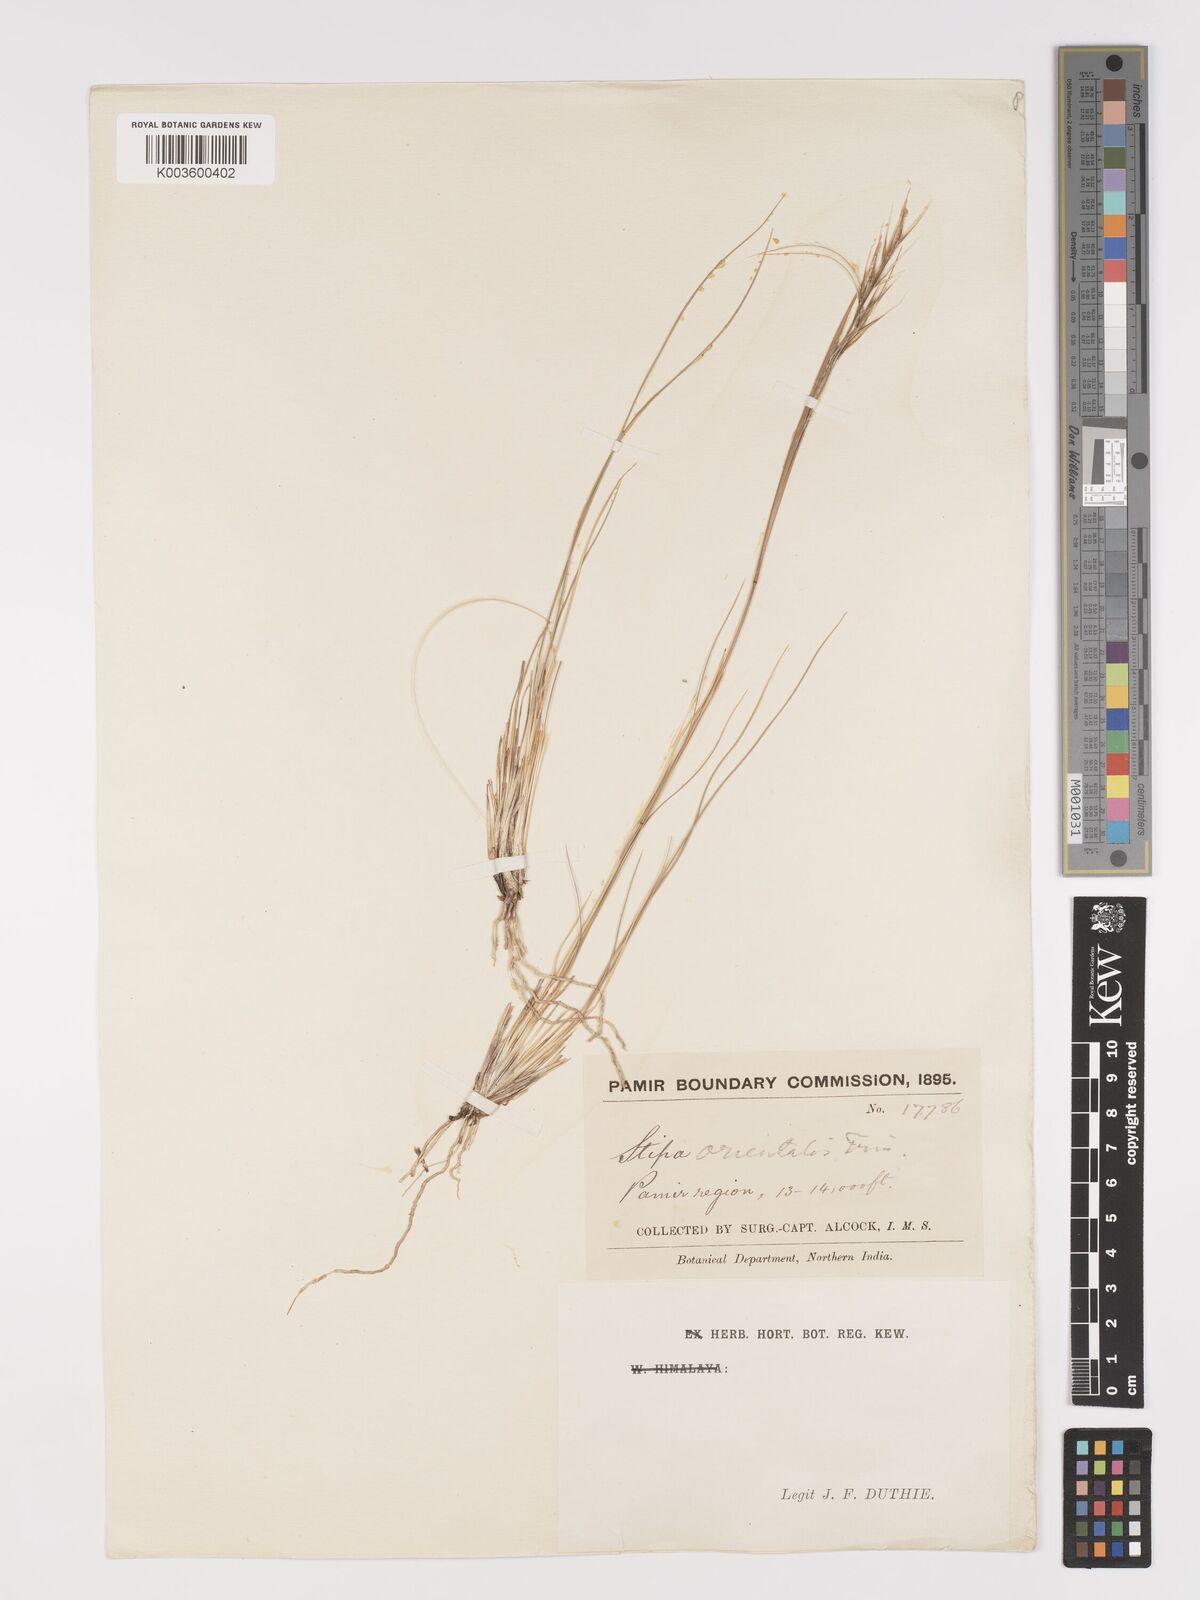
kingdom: Plantae
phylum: Tracheophyta
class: Liliopsida
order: Poales
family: Poaceae
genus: Stipa
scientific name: Stipa orientalis
